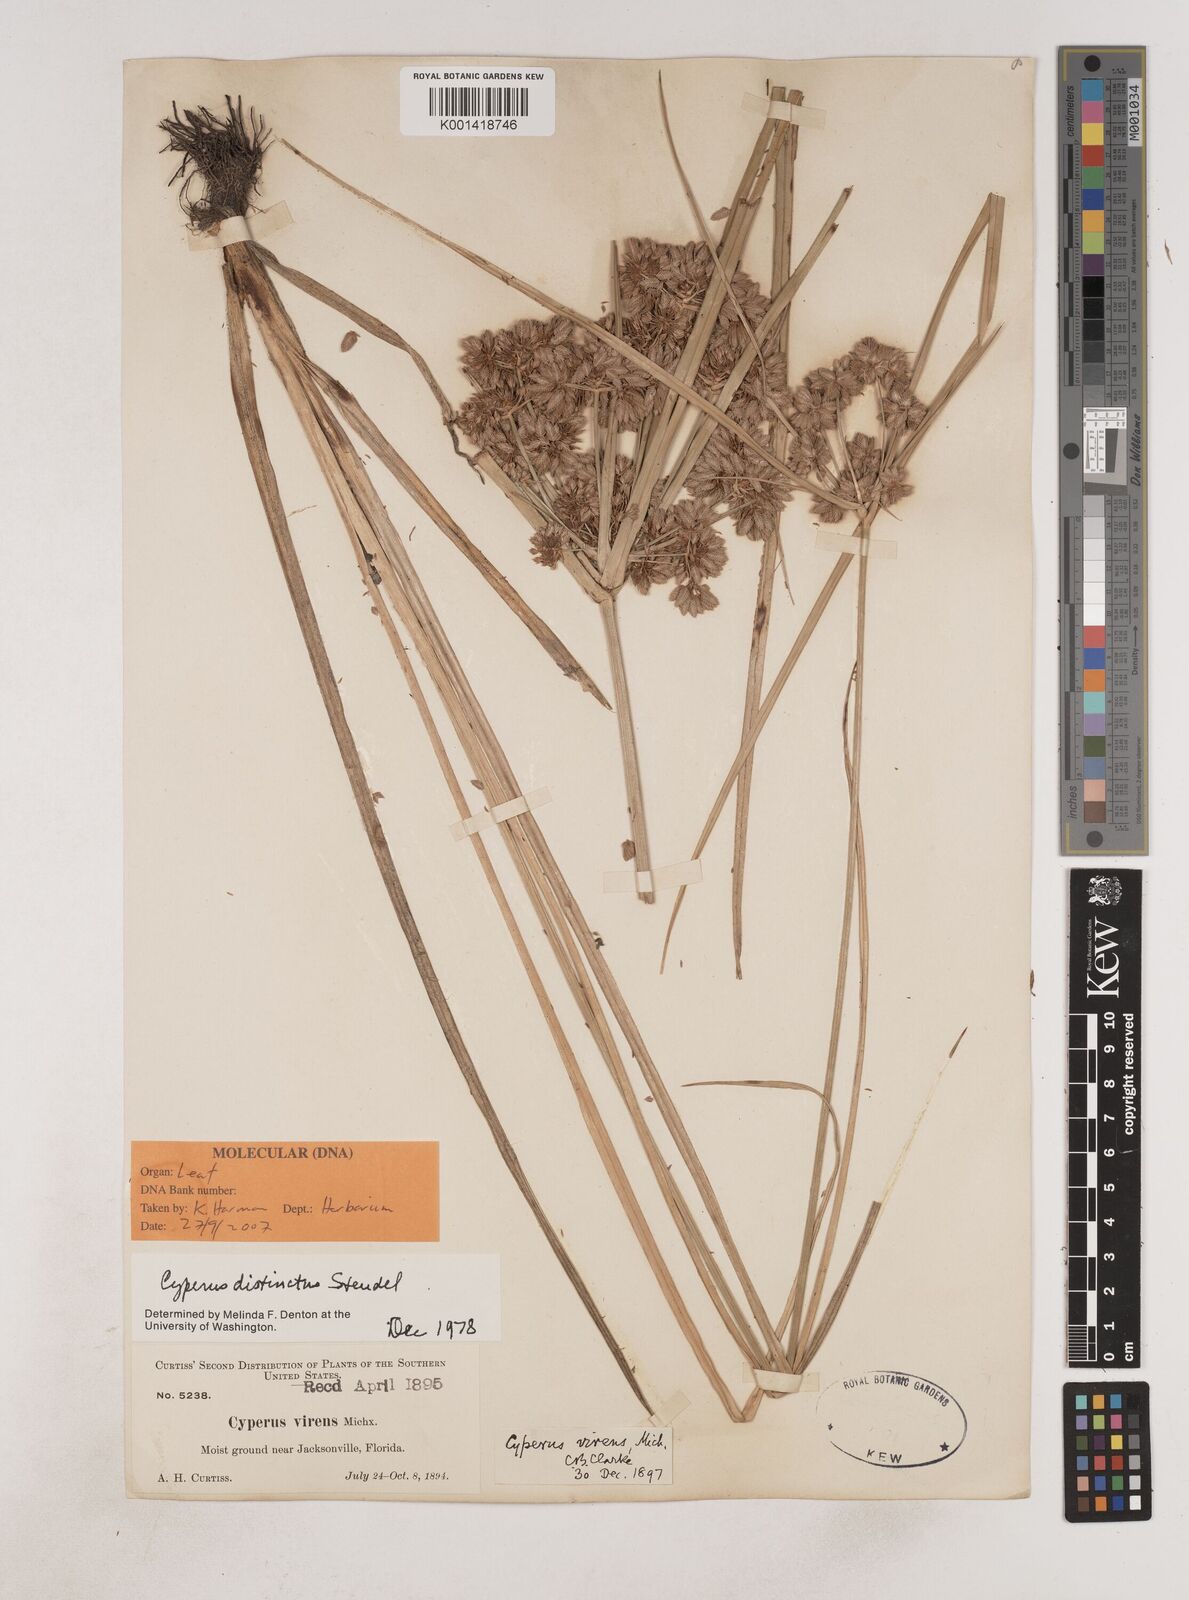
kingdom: Plantae
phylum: Tracheophyta
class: Liliopsida
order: Poales
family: Cyperaceae
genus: Cyperus
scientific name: Cyperus distinctus
